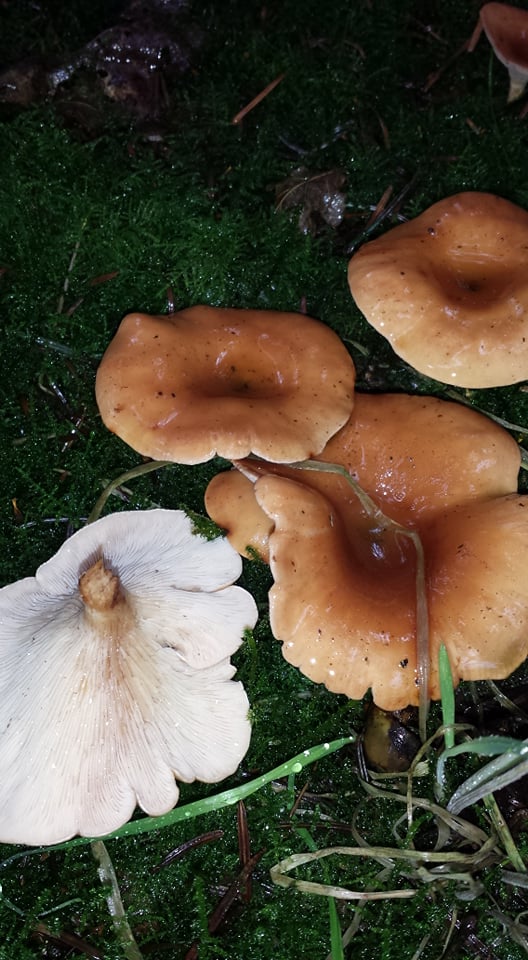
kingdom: Fungi
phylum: Basidiomycota
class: Agaricomycetes
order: Agaricales
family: Tricholomataceae
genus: Paralepista
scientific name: Paralepista flaccida
